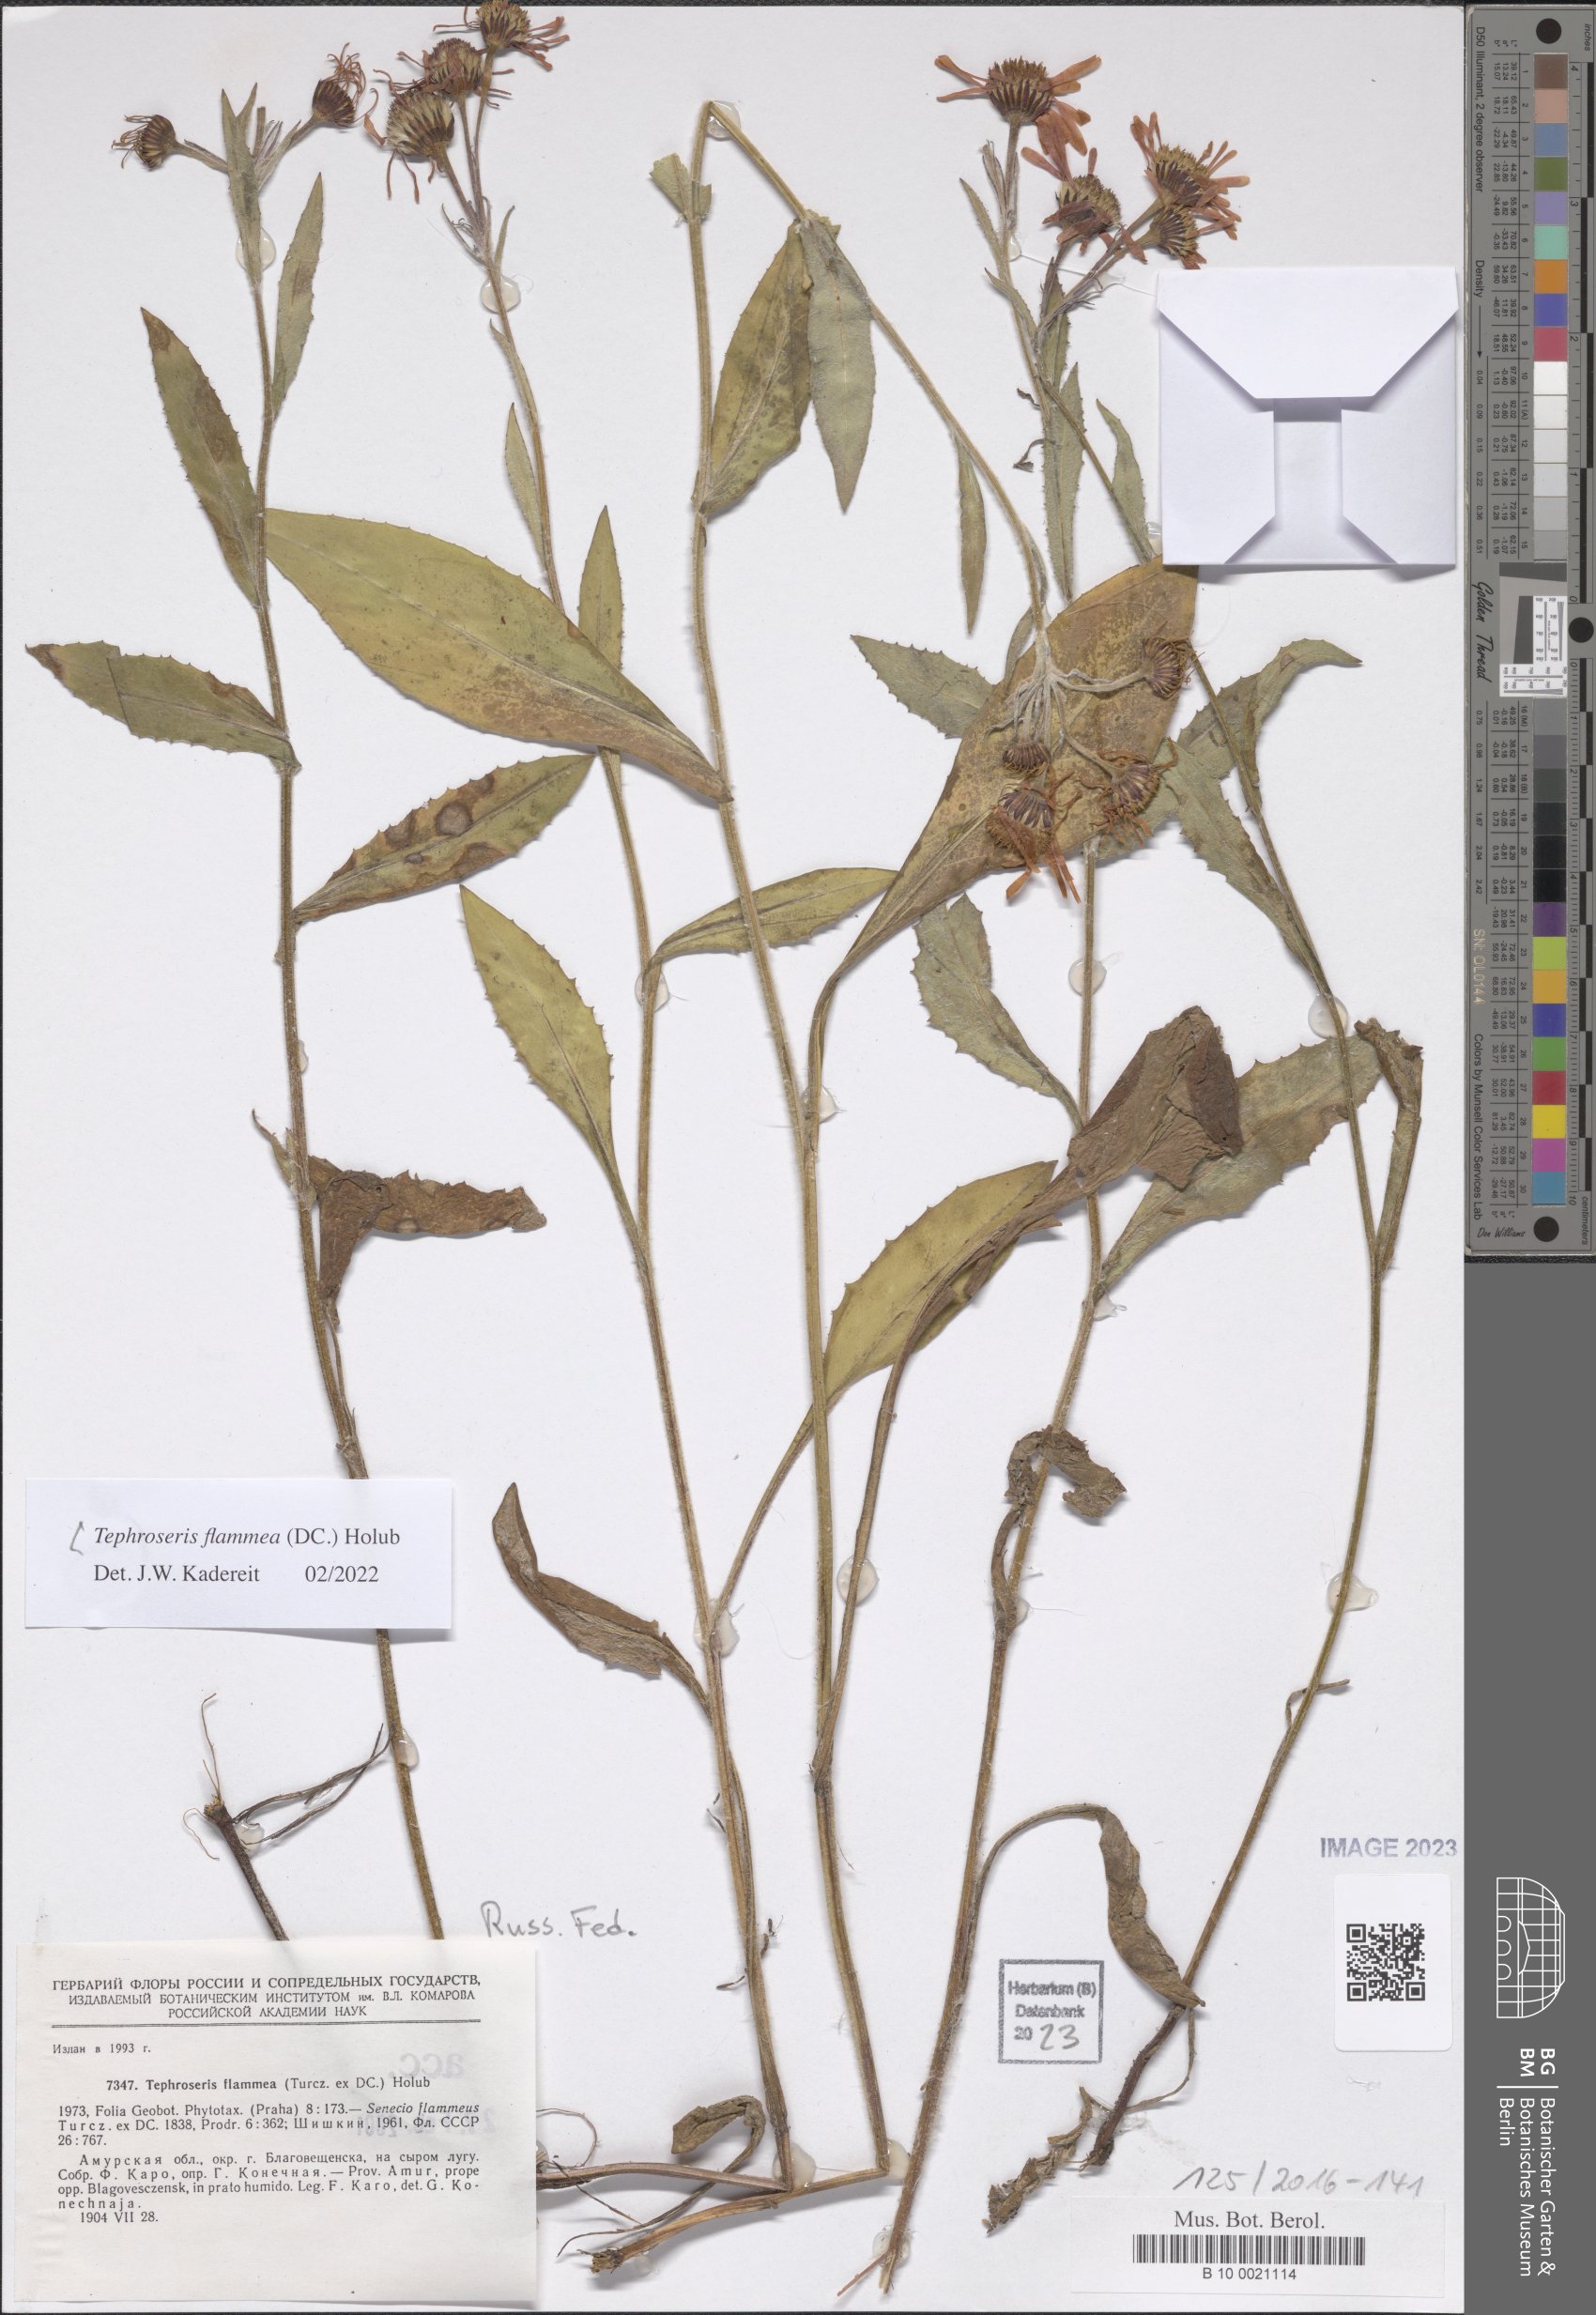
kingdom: Plantae
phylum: Tracheophyta
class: Magnoliopsida
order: Asterales
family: Asteraceae
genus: Tephroseris
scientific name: Tephroseris flammea
